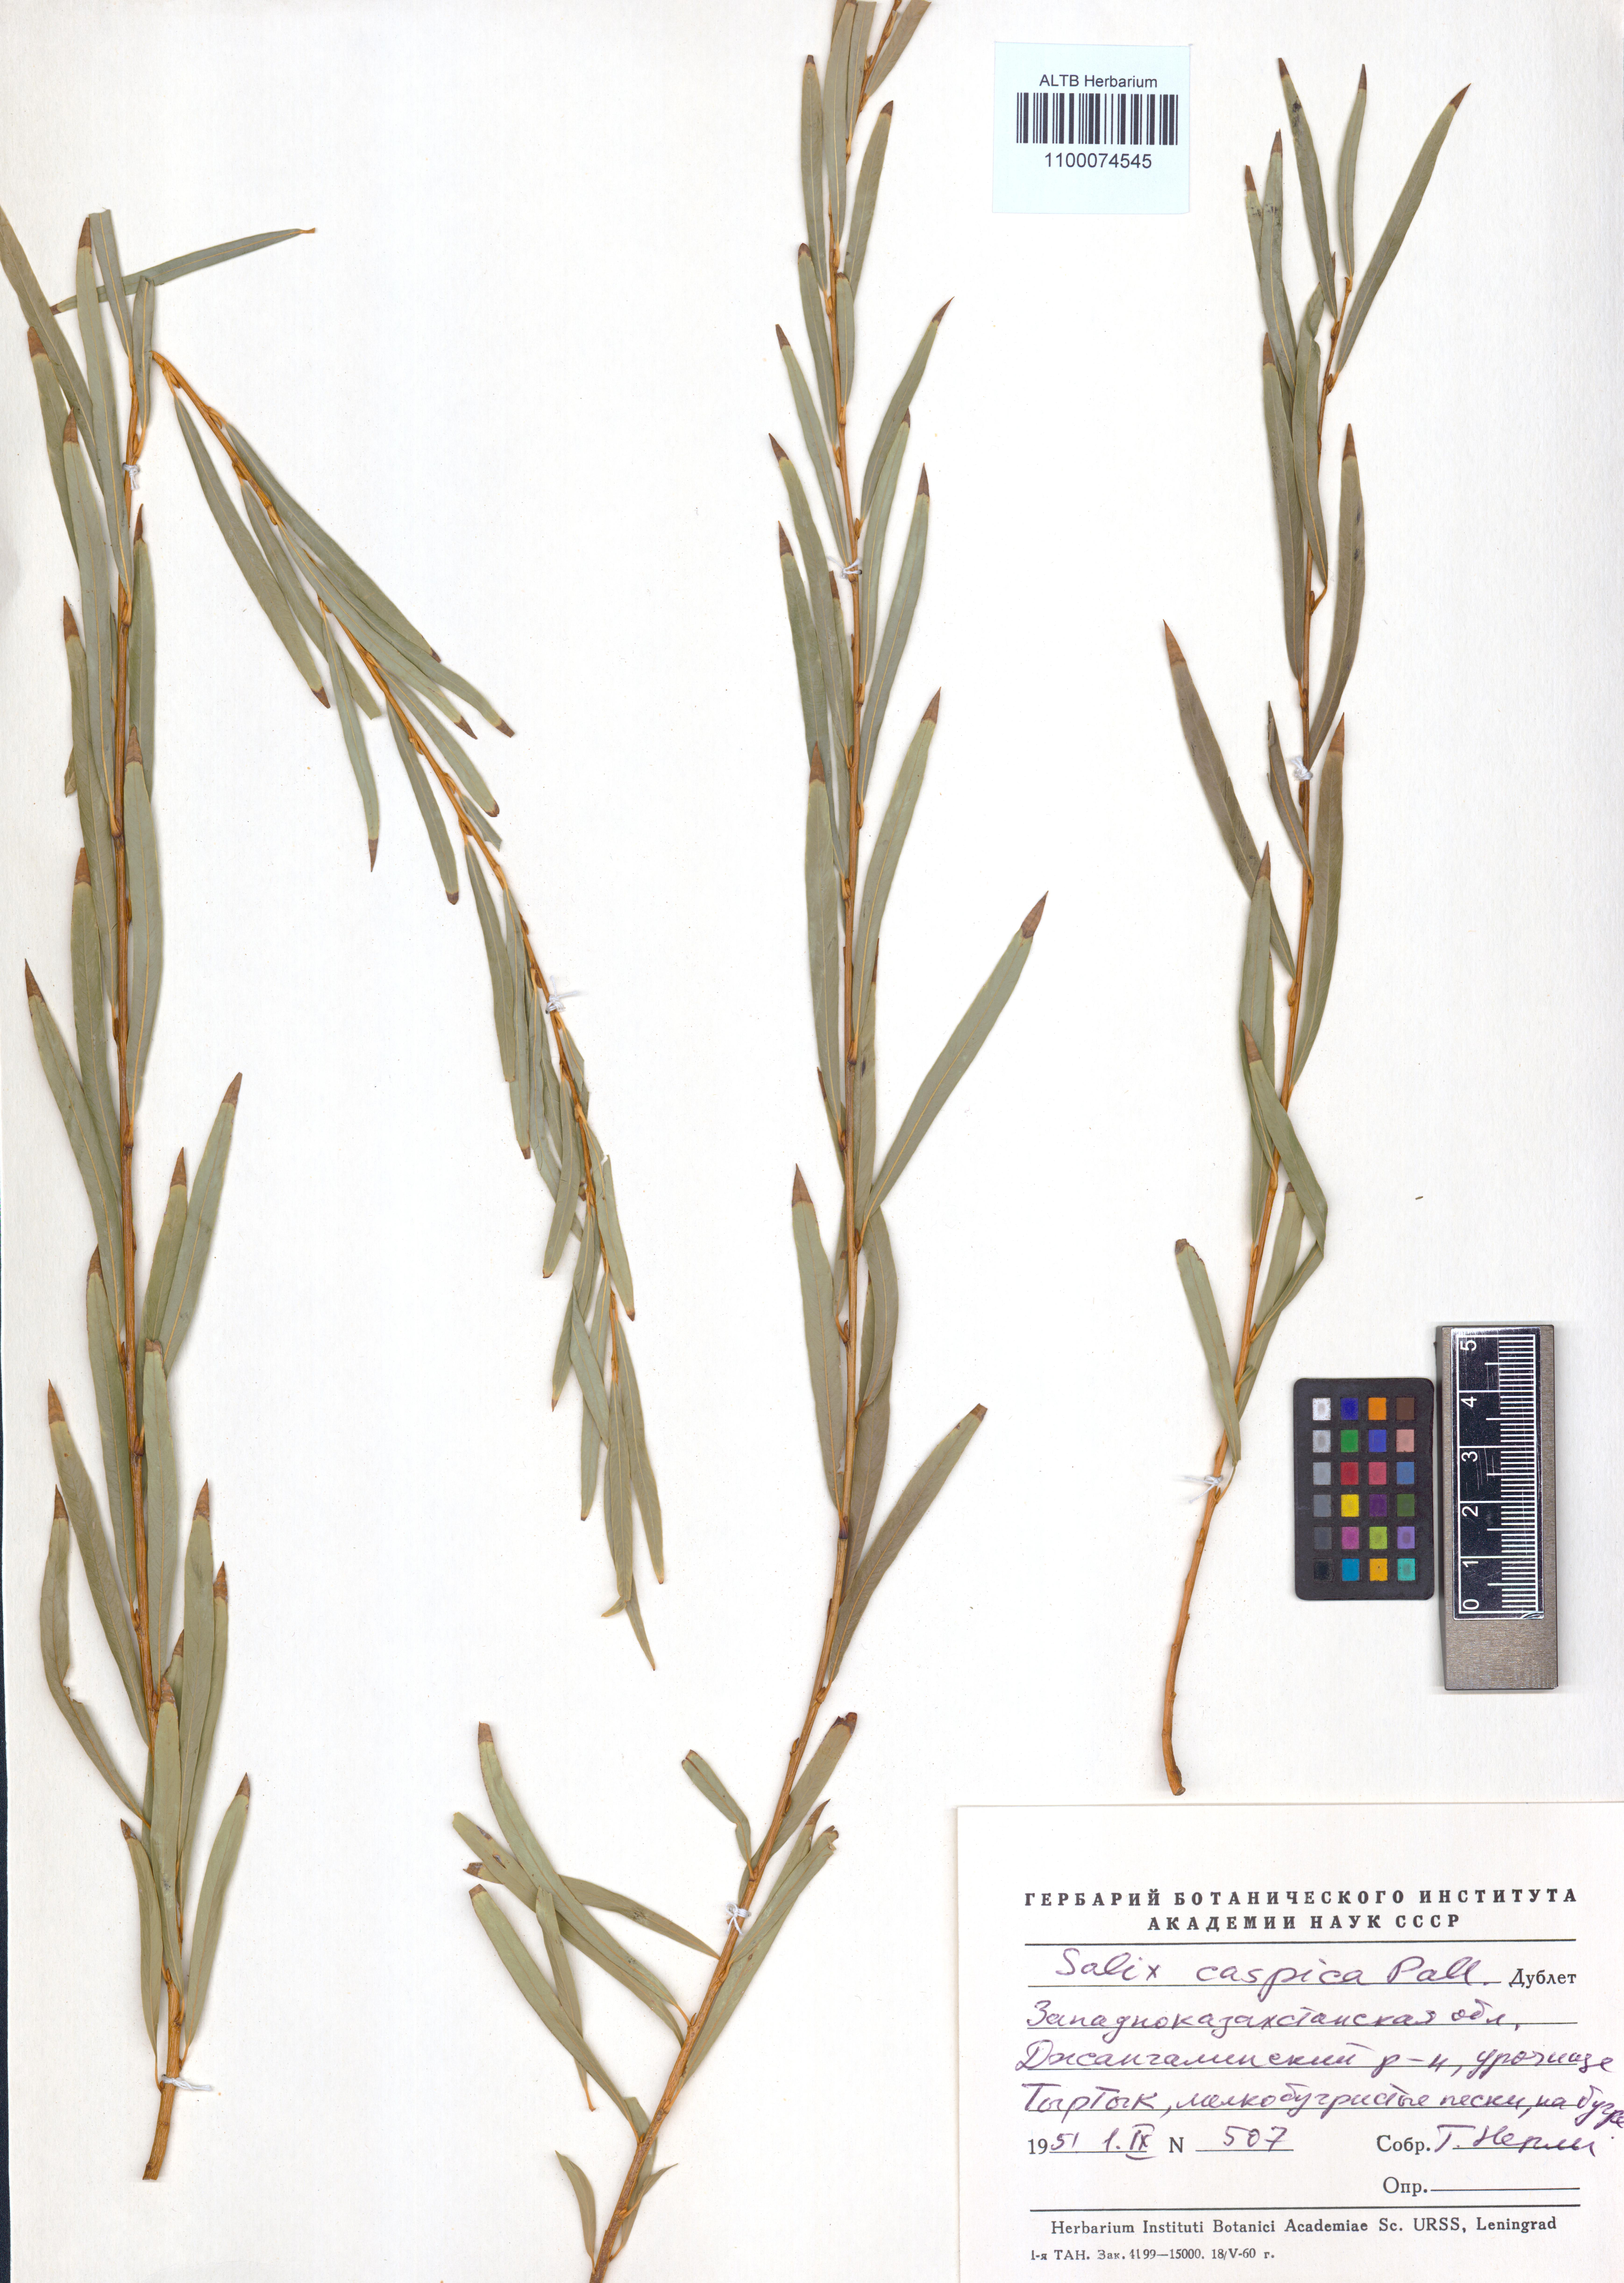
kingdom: Plantae
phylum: Tracheophyta
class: Magnoliopsida
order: Malpighiales
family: Salicaceae
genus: Salix
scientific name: Salix caspica
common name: Caspian willow
